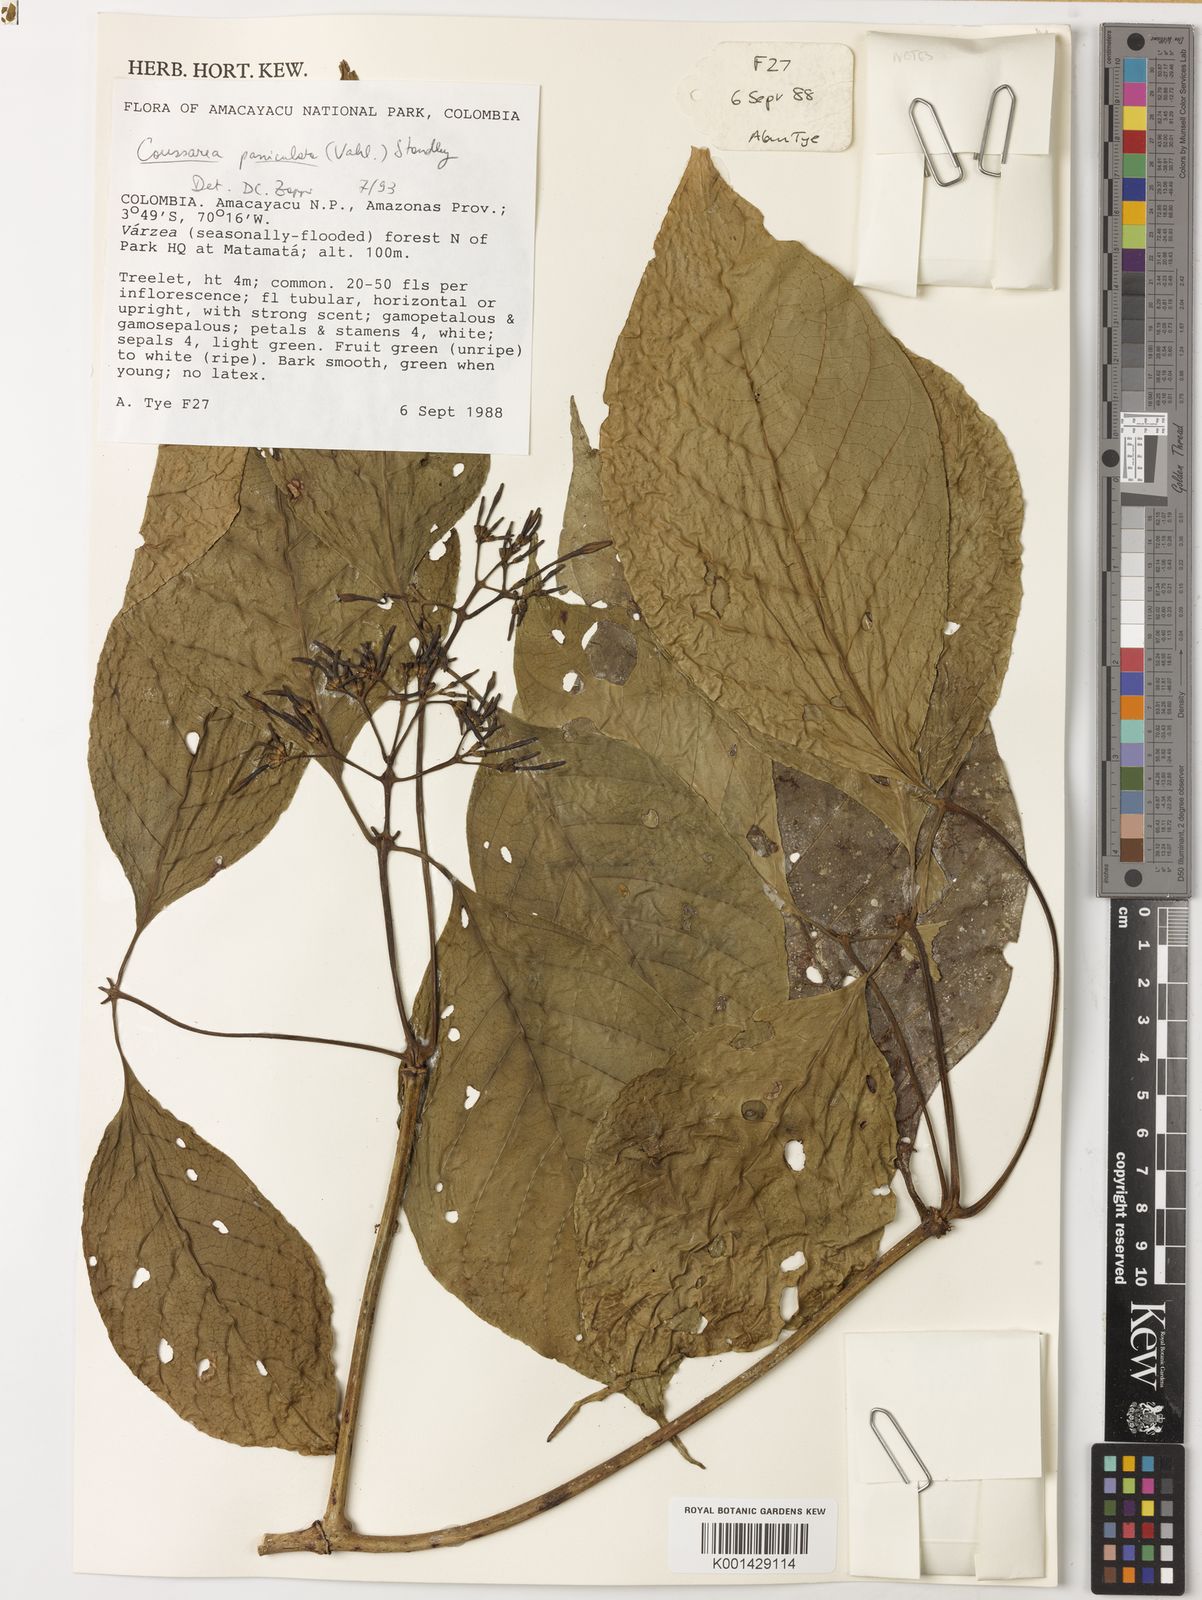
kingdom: Plantae
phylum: Tracheophyta
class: Magnoliopsida
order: Gentianales
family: Rubiaceae
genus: Coussarea
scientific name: Coussarea paniculata
